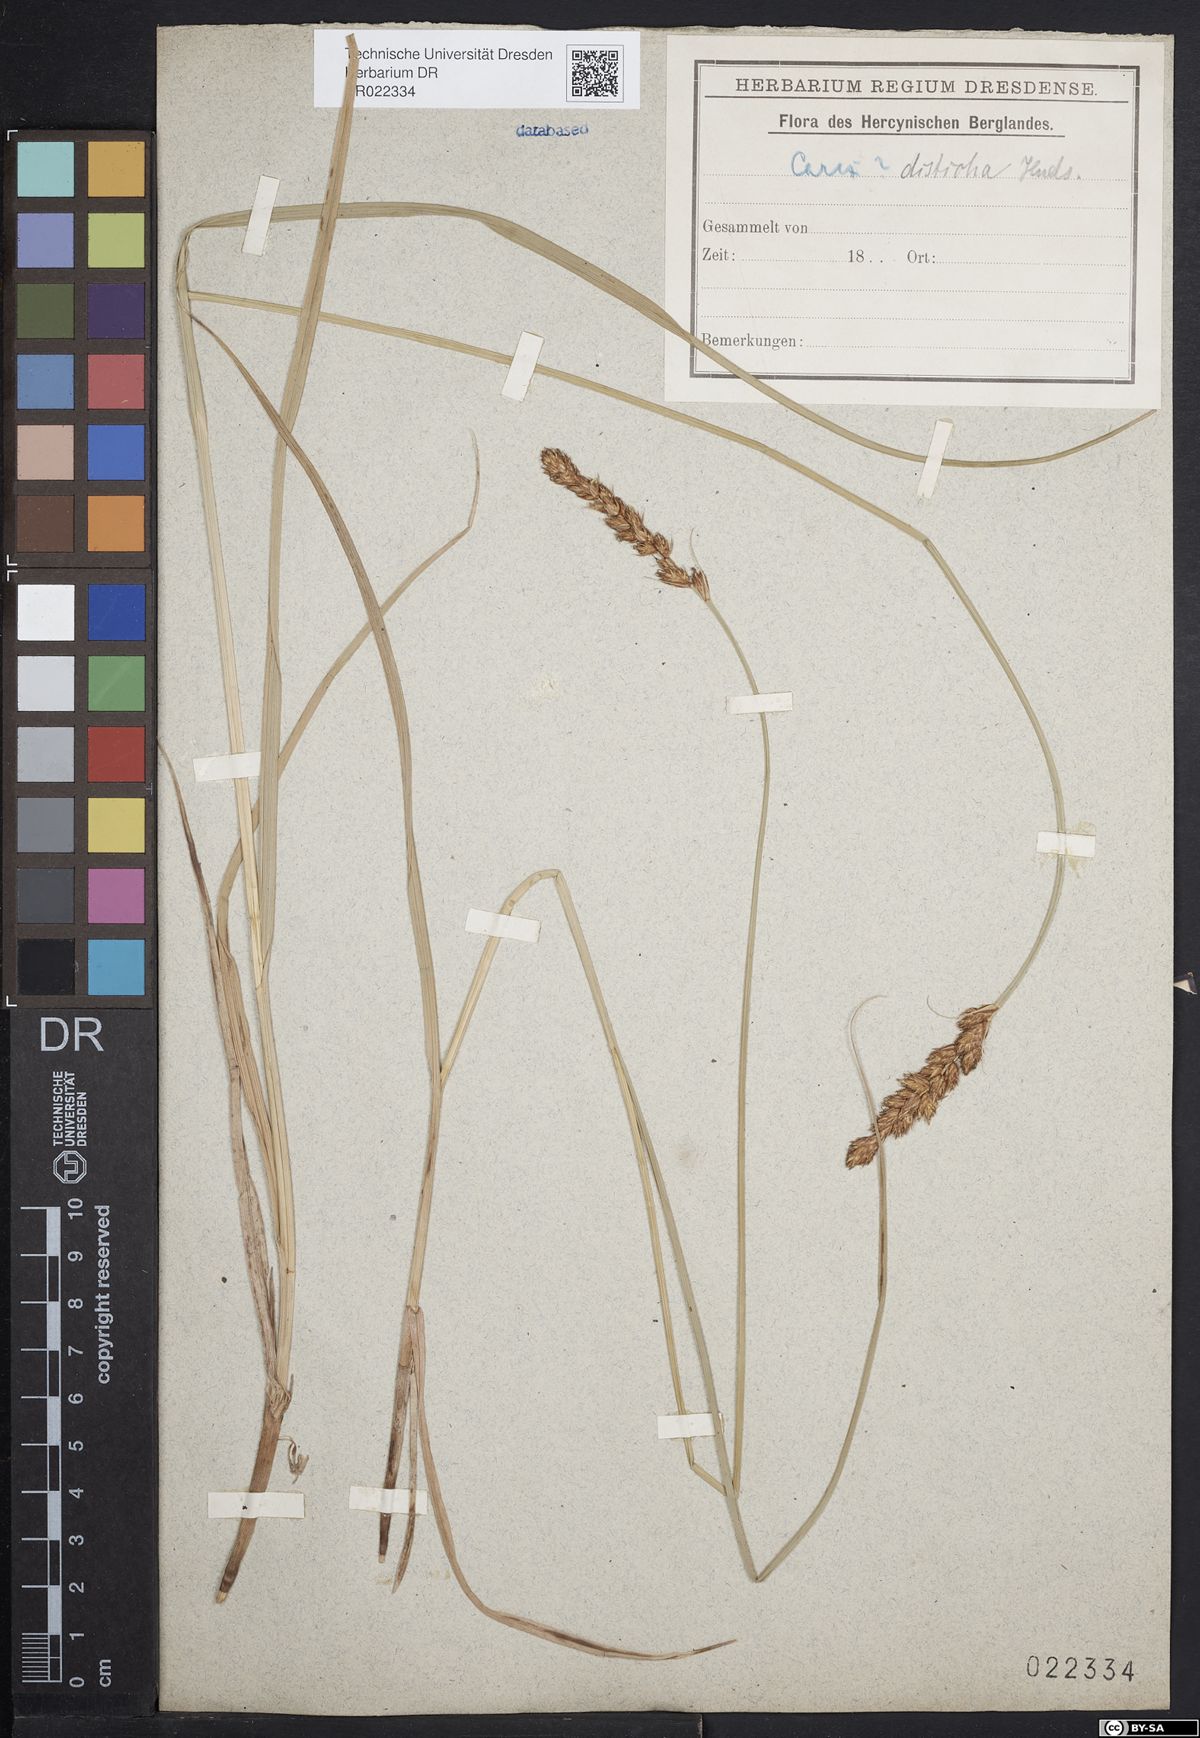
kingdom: Plantae
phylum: Tracheophyta
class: Liliopsida
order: Poales
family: Cyperaceae
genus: Carex
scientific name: Carex disticha
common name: Brown sedge
